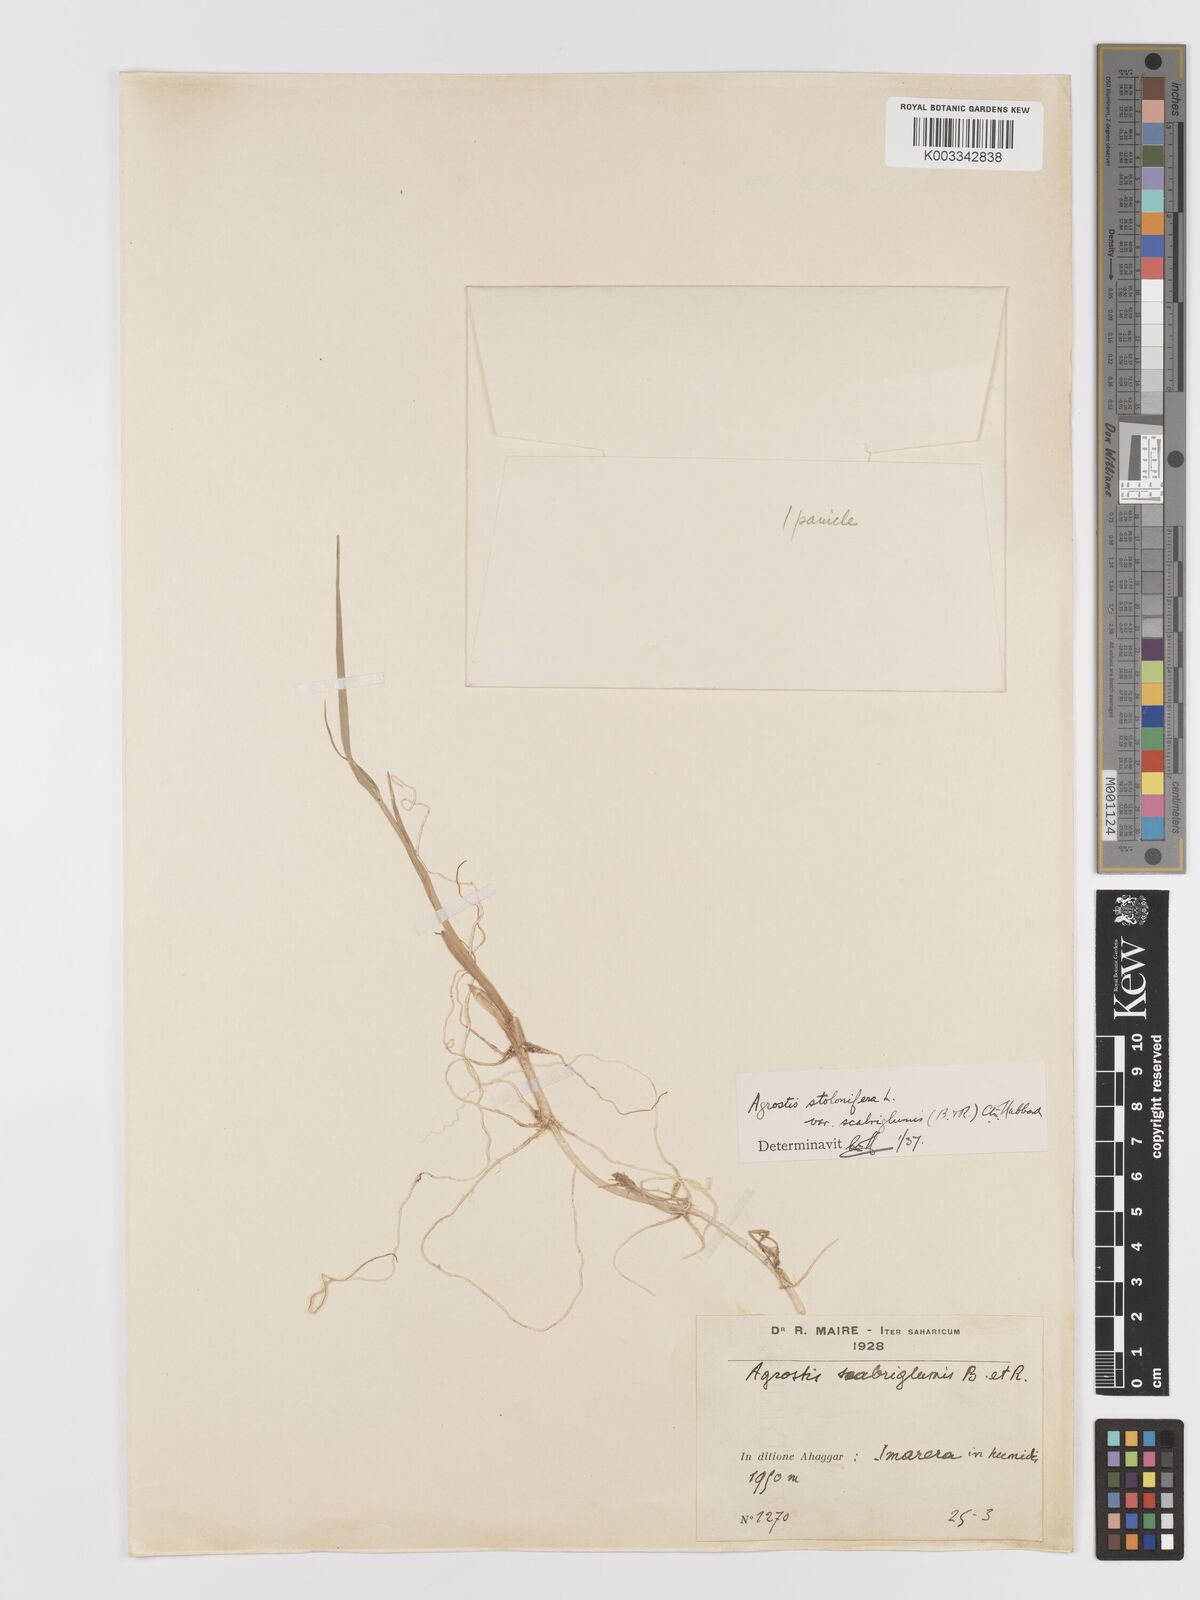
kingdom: Plantae
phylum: Tracheophyta
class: Liliopsida
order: Poales
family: Poaceae
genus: Agrostis
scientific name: Agrostis stolonifera
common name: Creeping bentgrass
